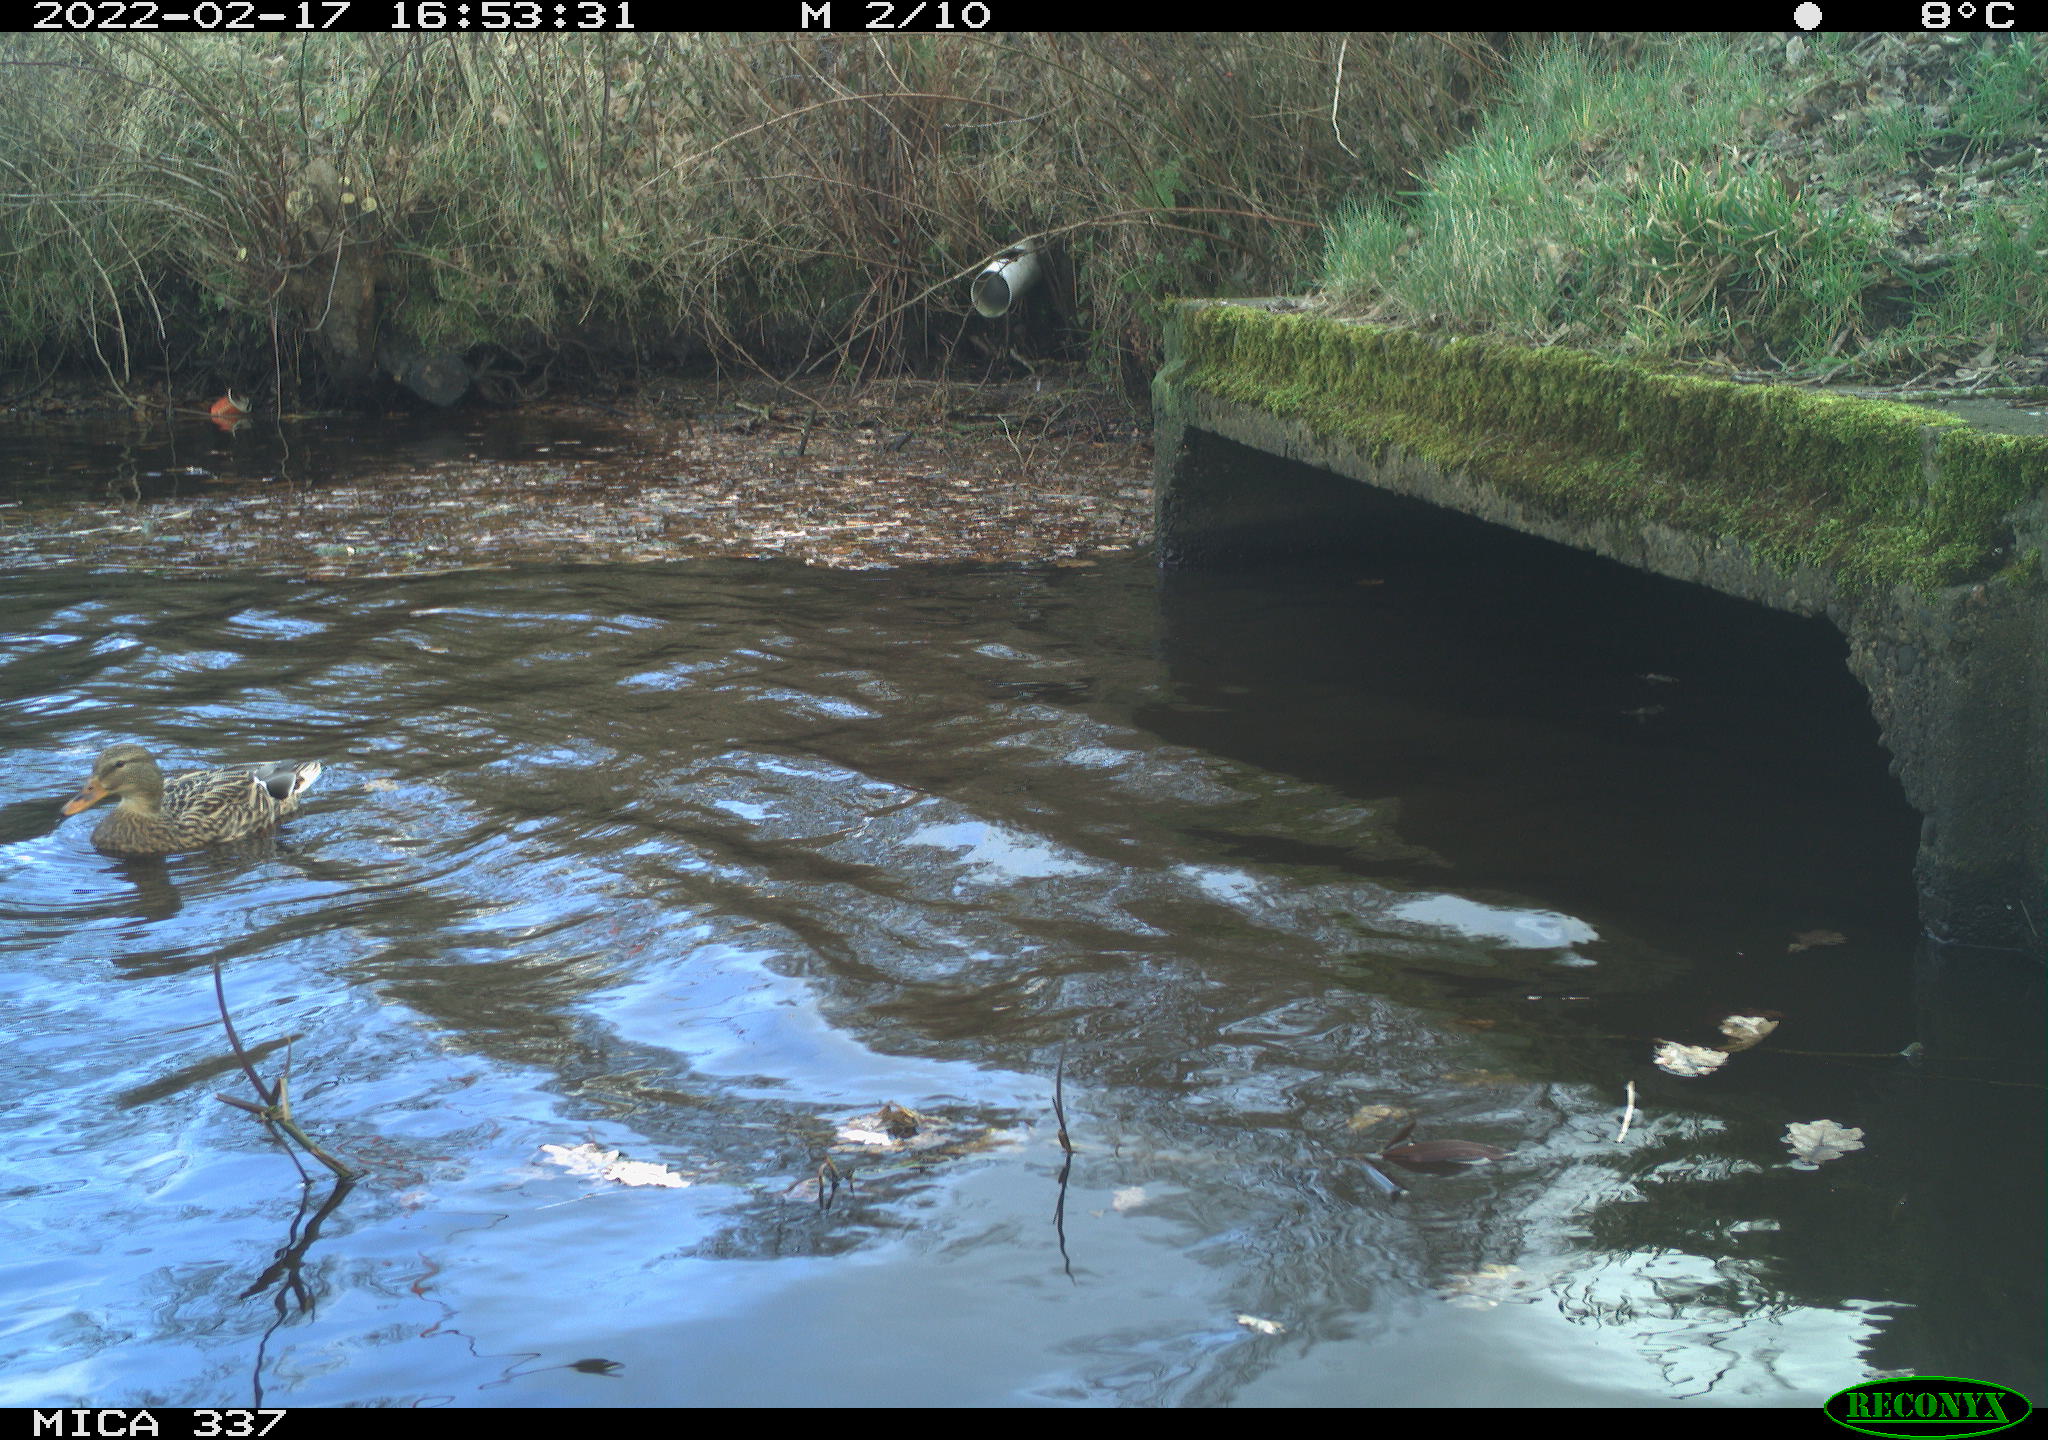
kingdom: Animalia
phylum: Chordata
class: Aves
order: Anseriformes
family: Anatidae
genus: Anas
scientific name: Anas platyrhynchos
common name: Mallard
